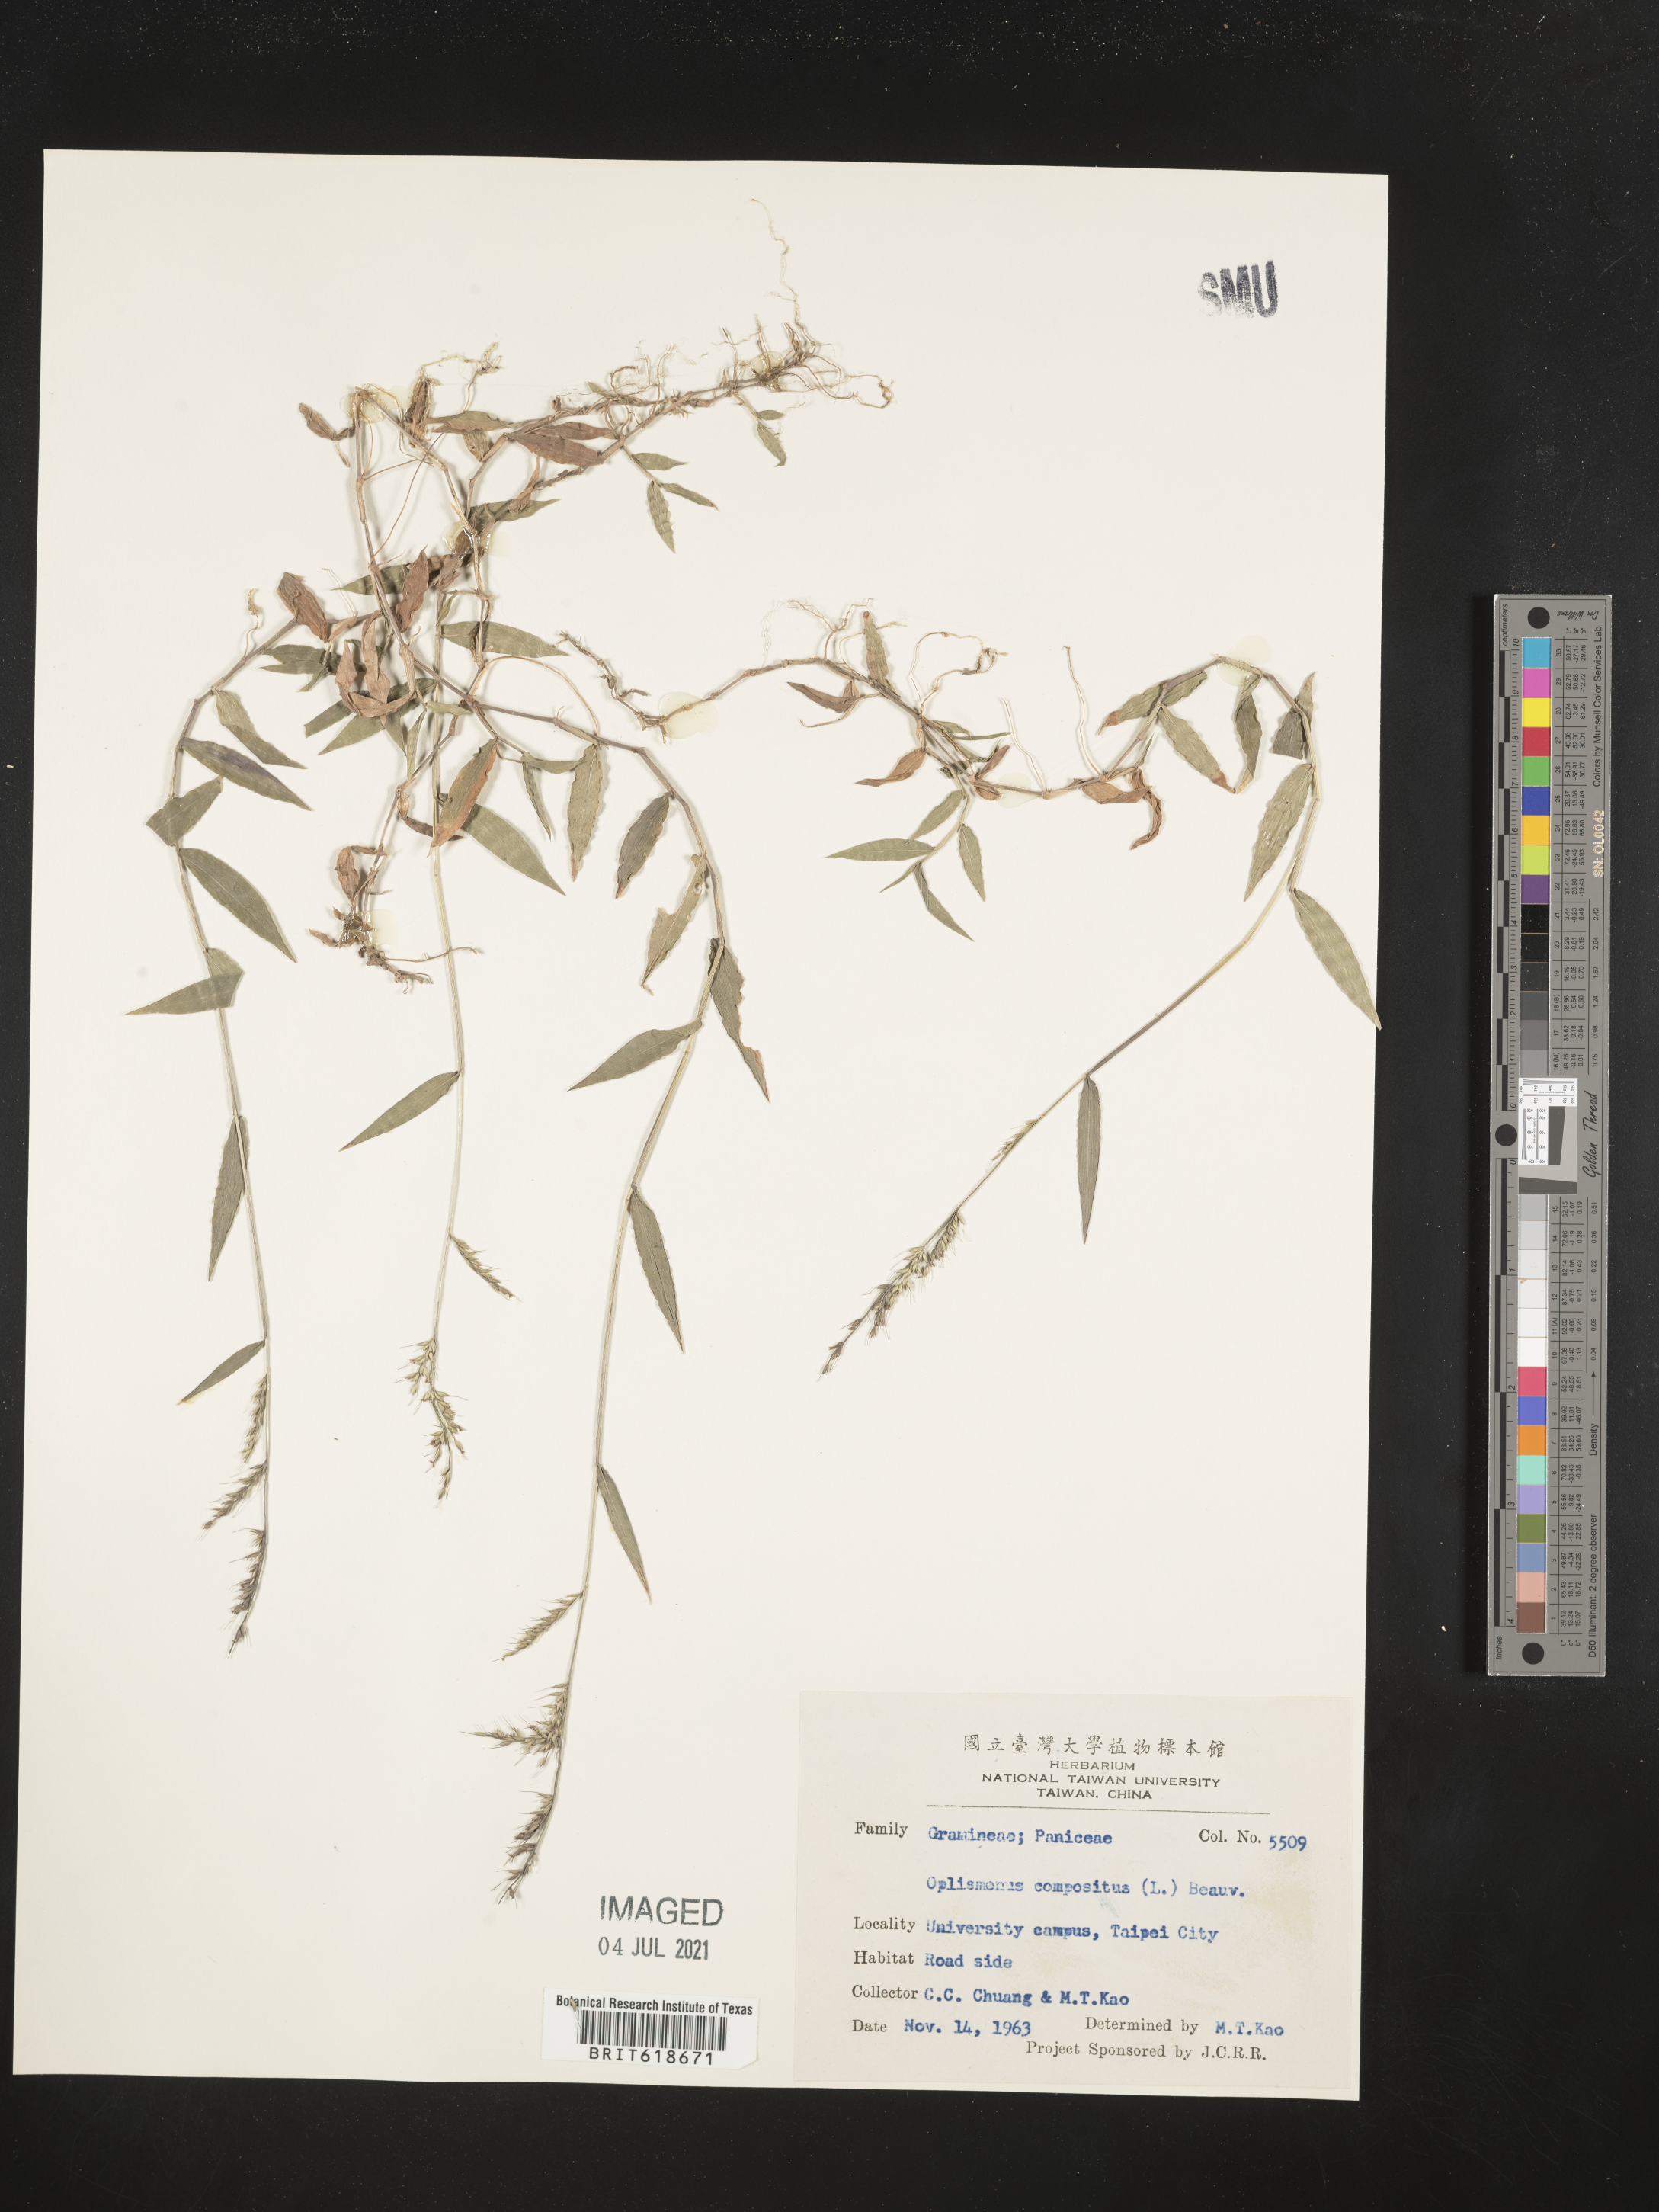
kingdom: Plantae
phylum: Tracheophyta
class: Liliopsida
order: Poales
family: Poaceae
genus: Oplismenus
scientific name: Oplismenus compositus
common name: Running mountain grass
